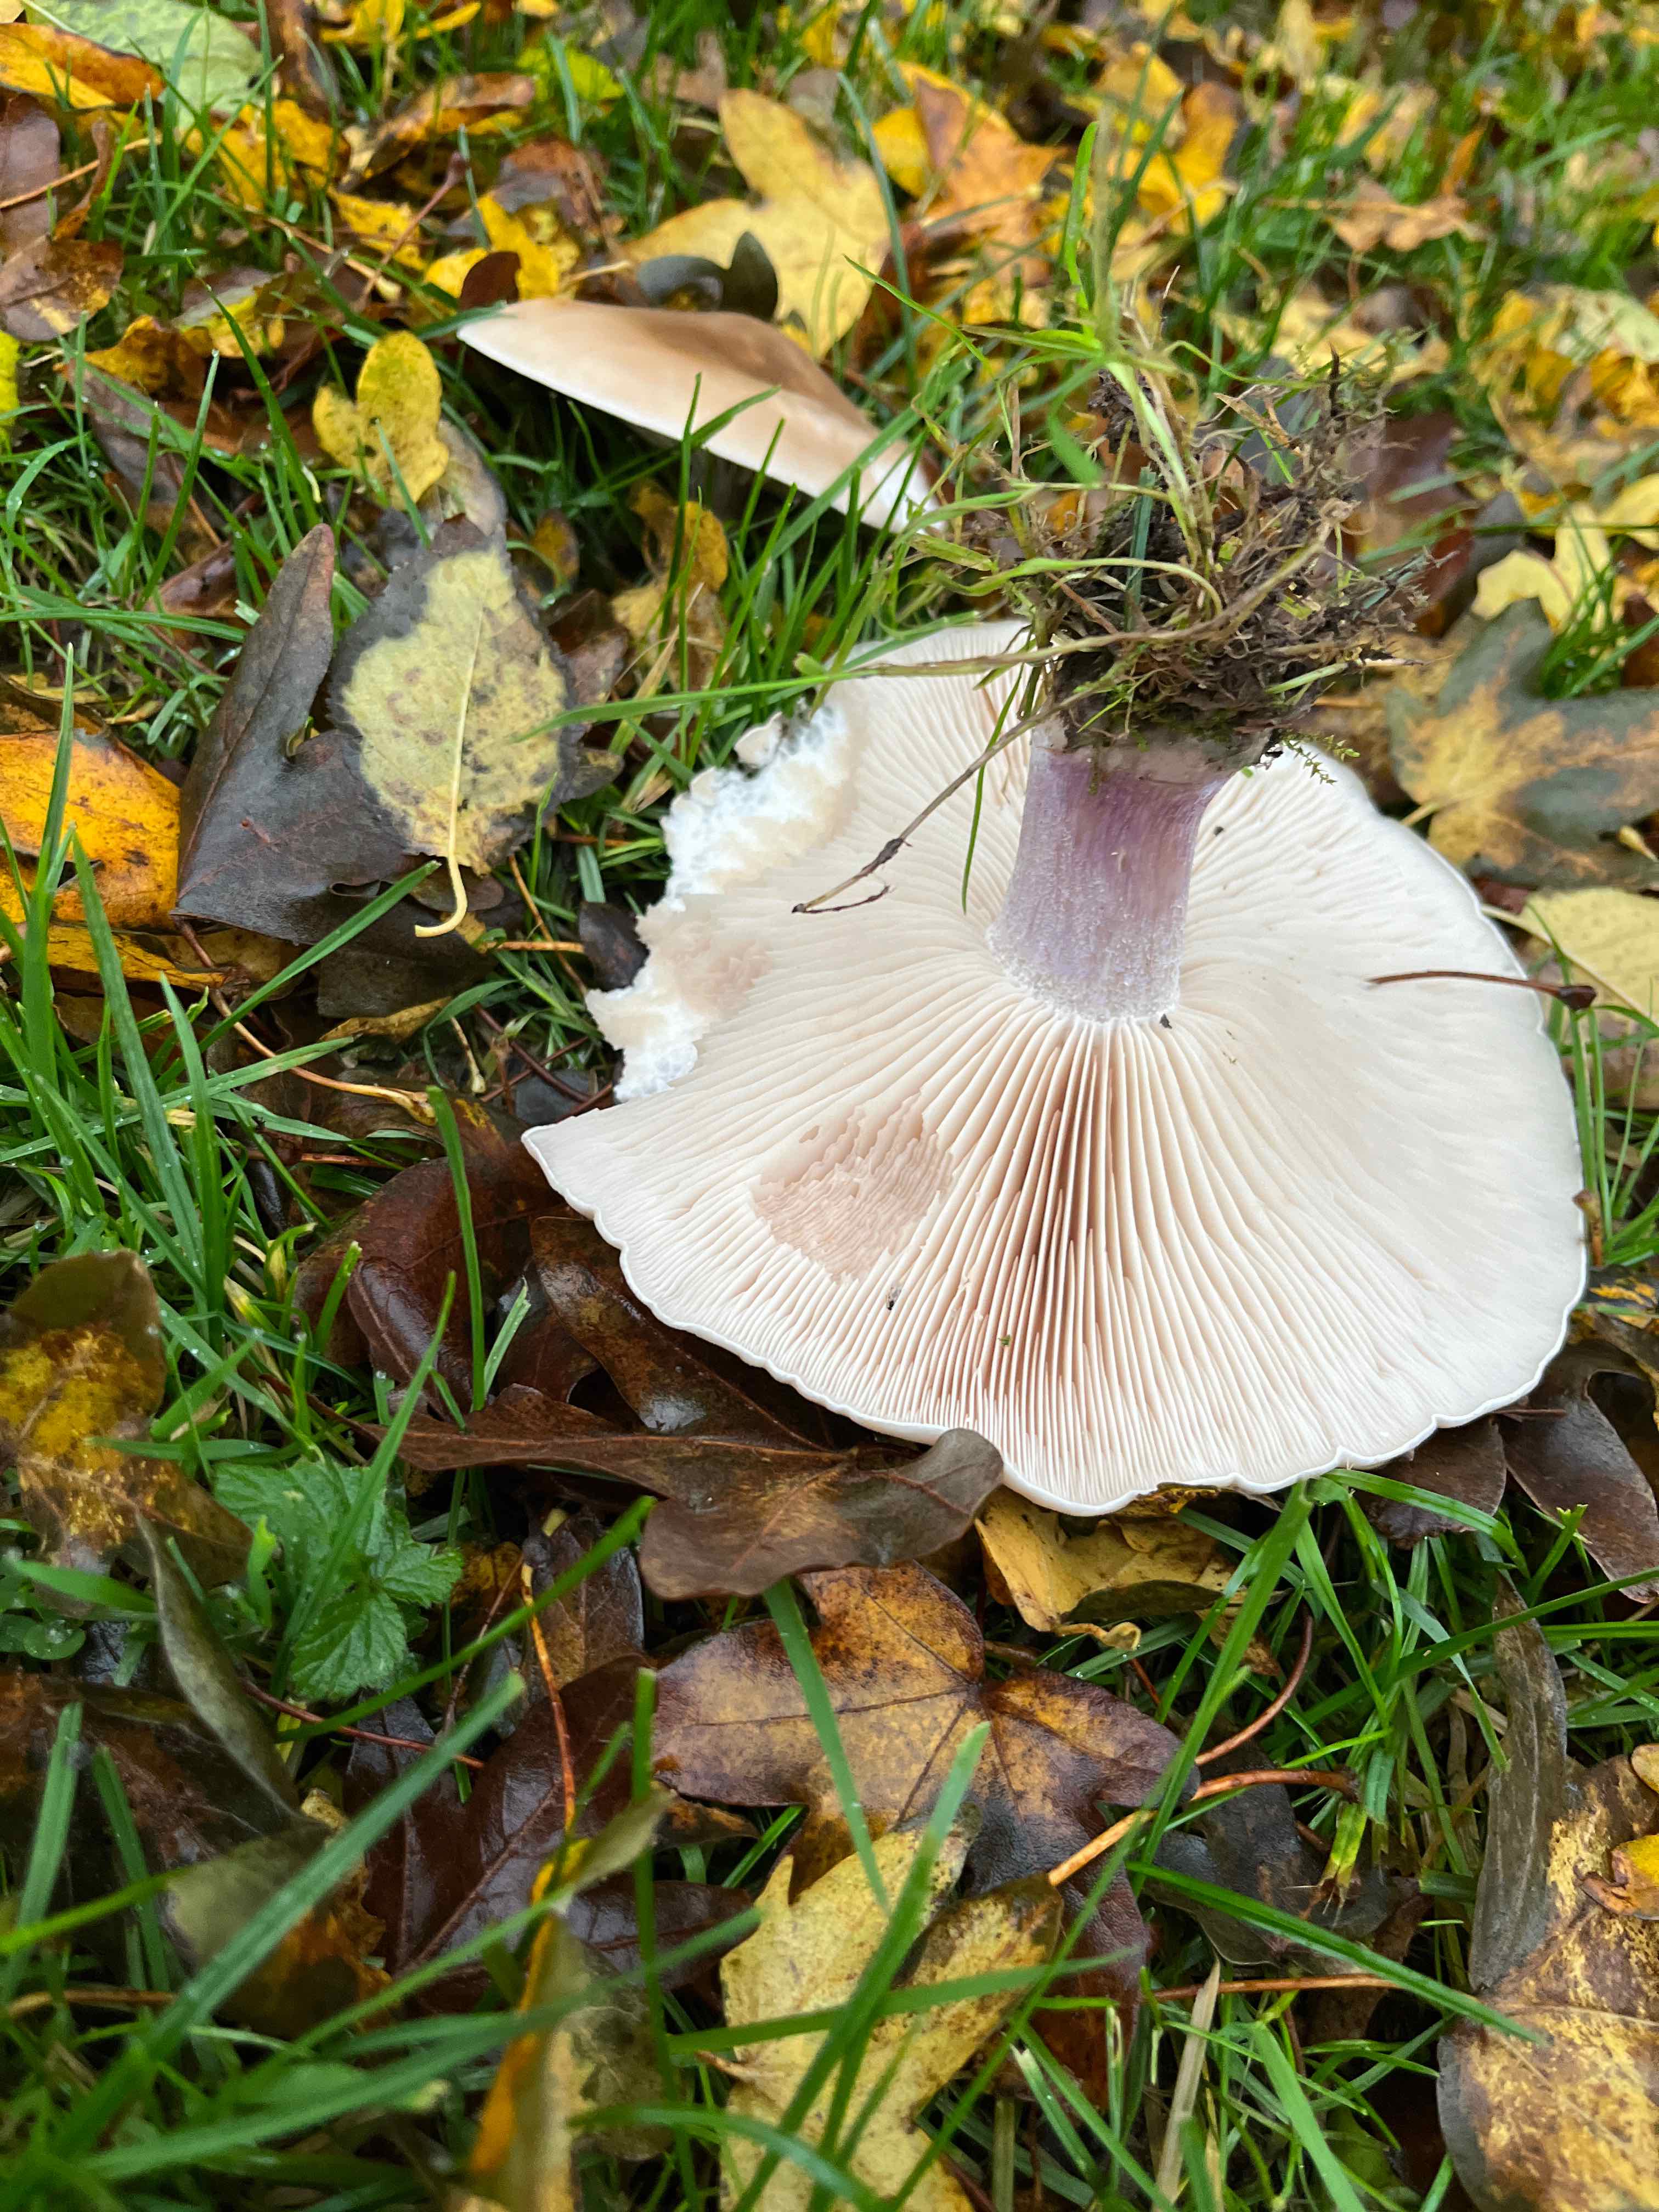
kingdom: Fungi
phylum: Basidiomycota
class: Agaricomycetes
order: Agaricales
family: Tricholomataceae
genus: Lepista
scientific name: Lepista personata
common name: bleg hekseringshat
